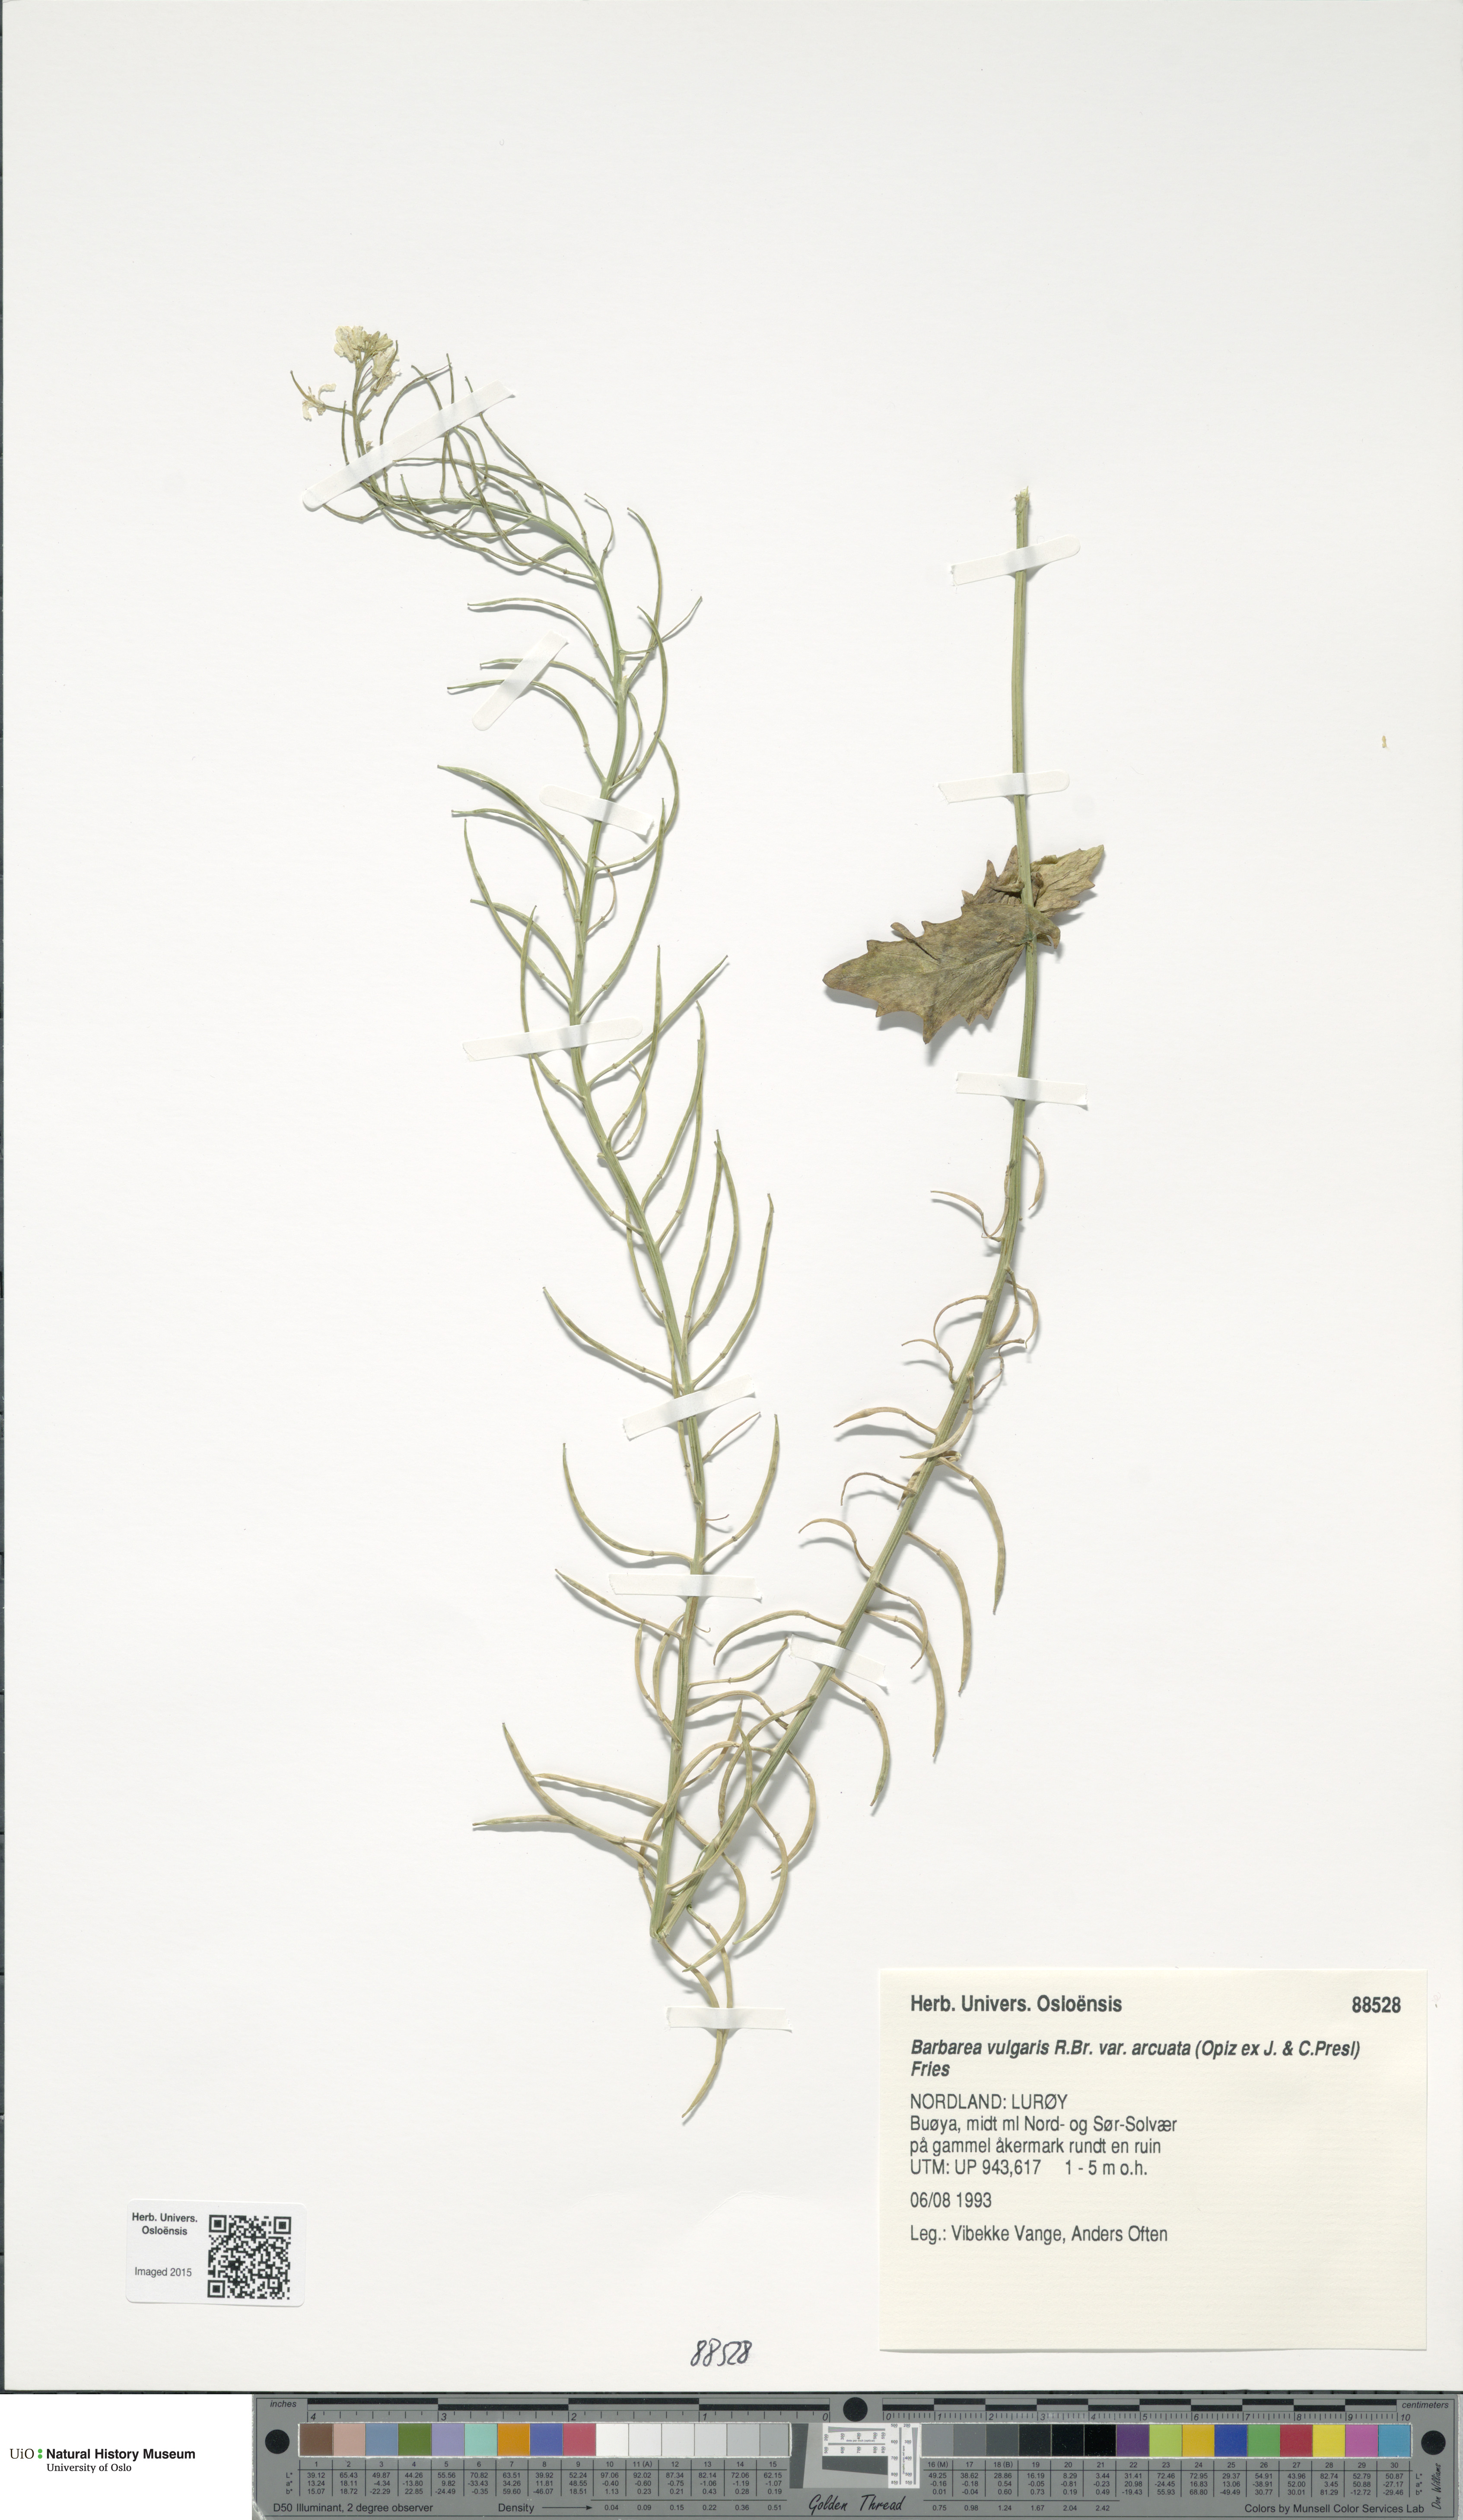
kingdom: Plantae
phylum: Tracheophyta
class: Magnoliopsida
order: Brassicales
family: Brassicaceae
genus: Barbarea
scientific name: Barbarea vulgaris
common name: Cressy-greens
